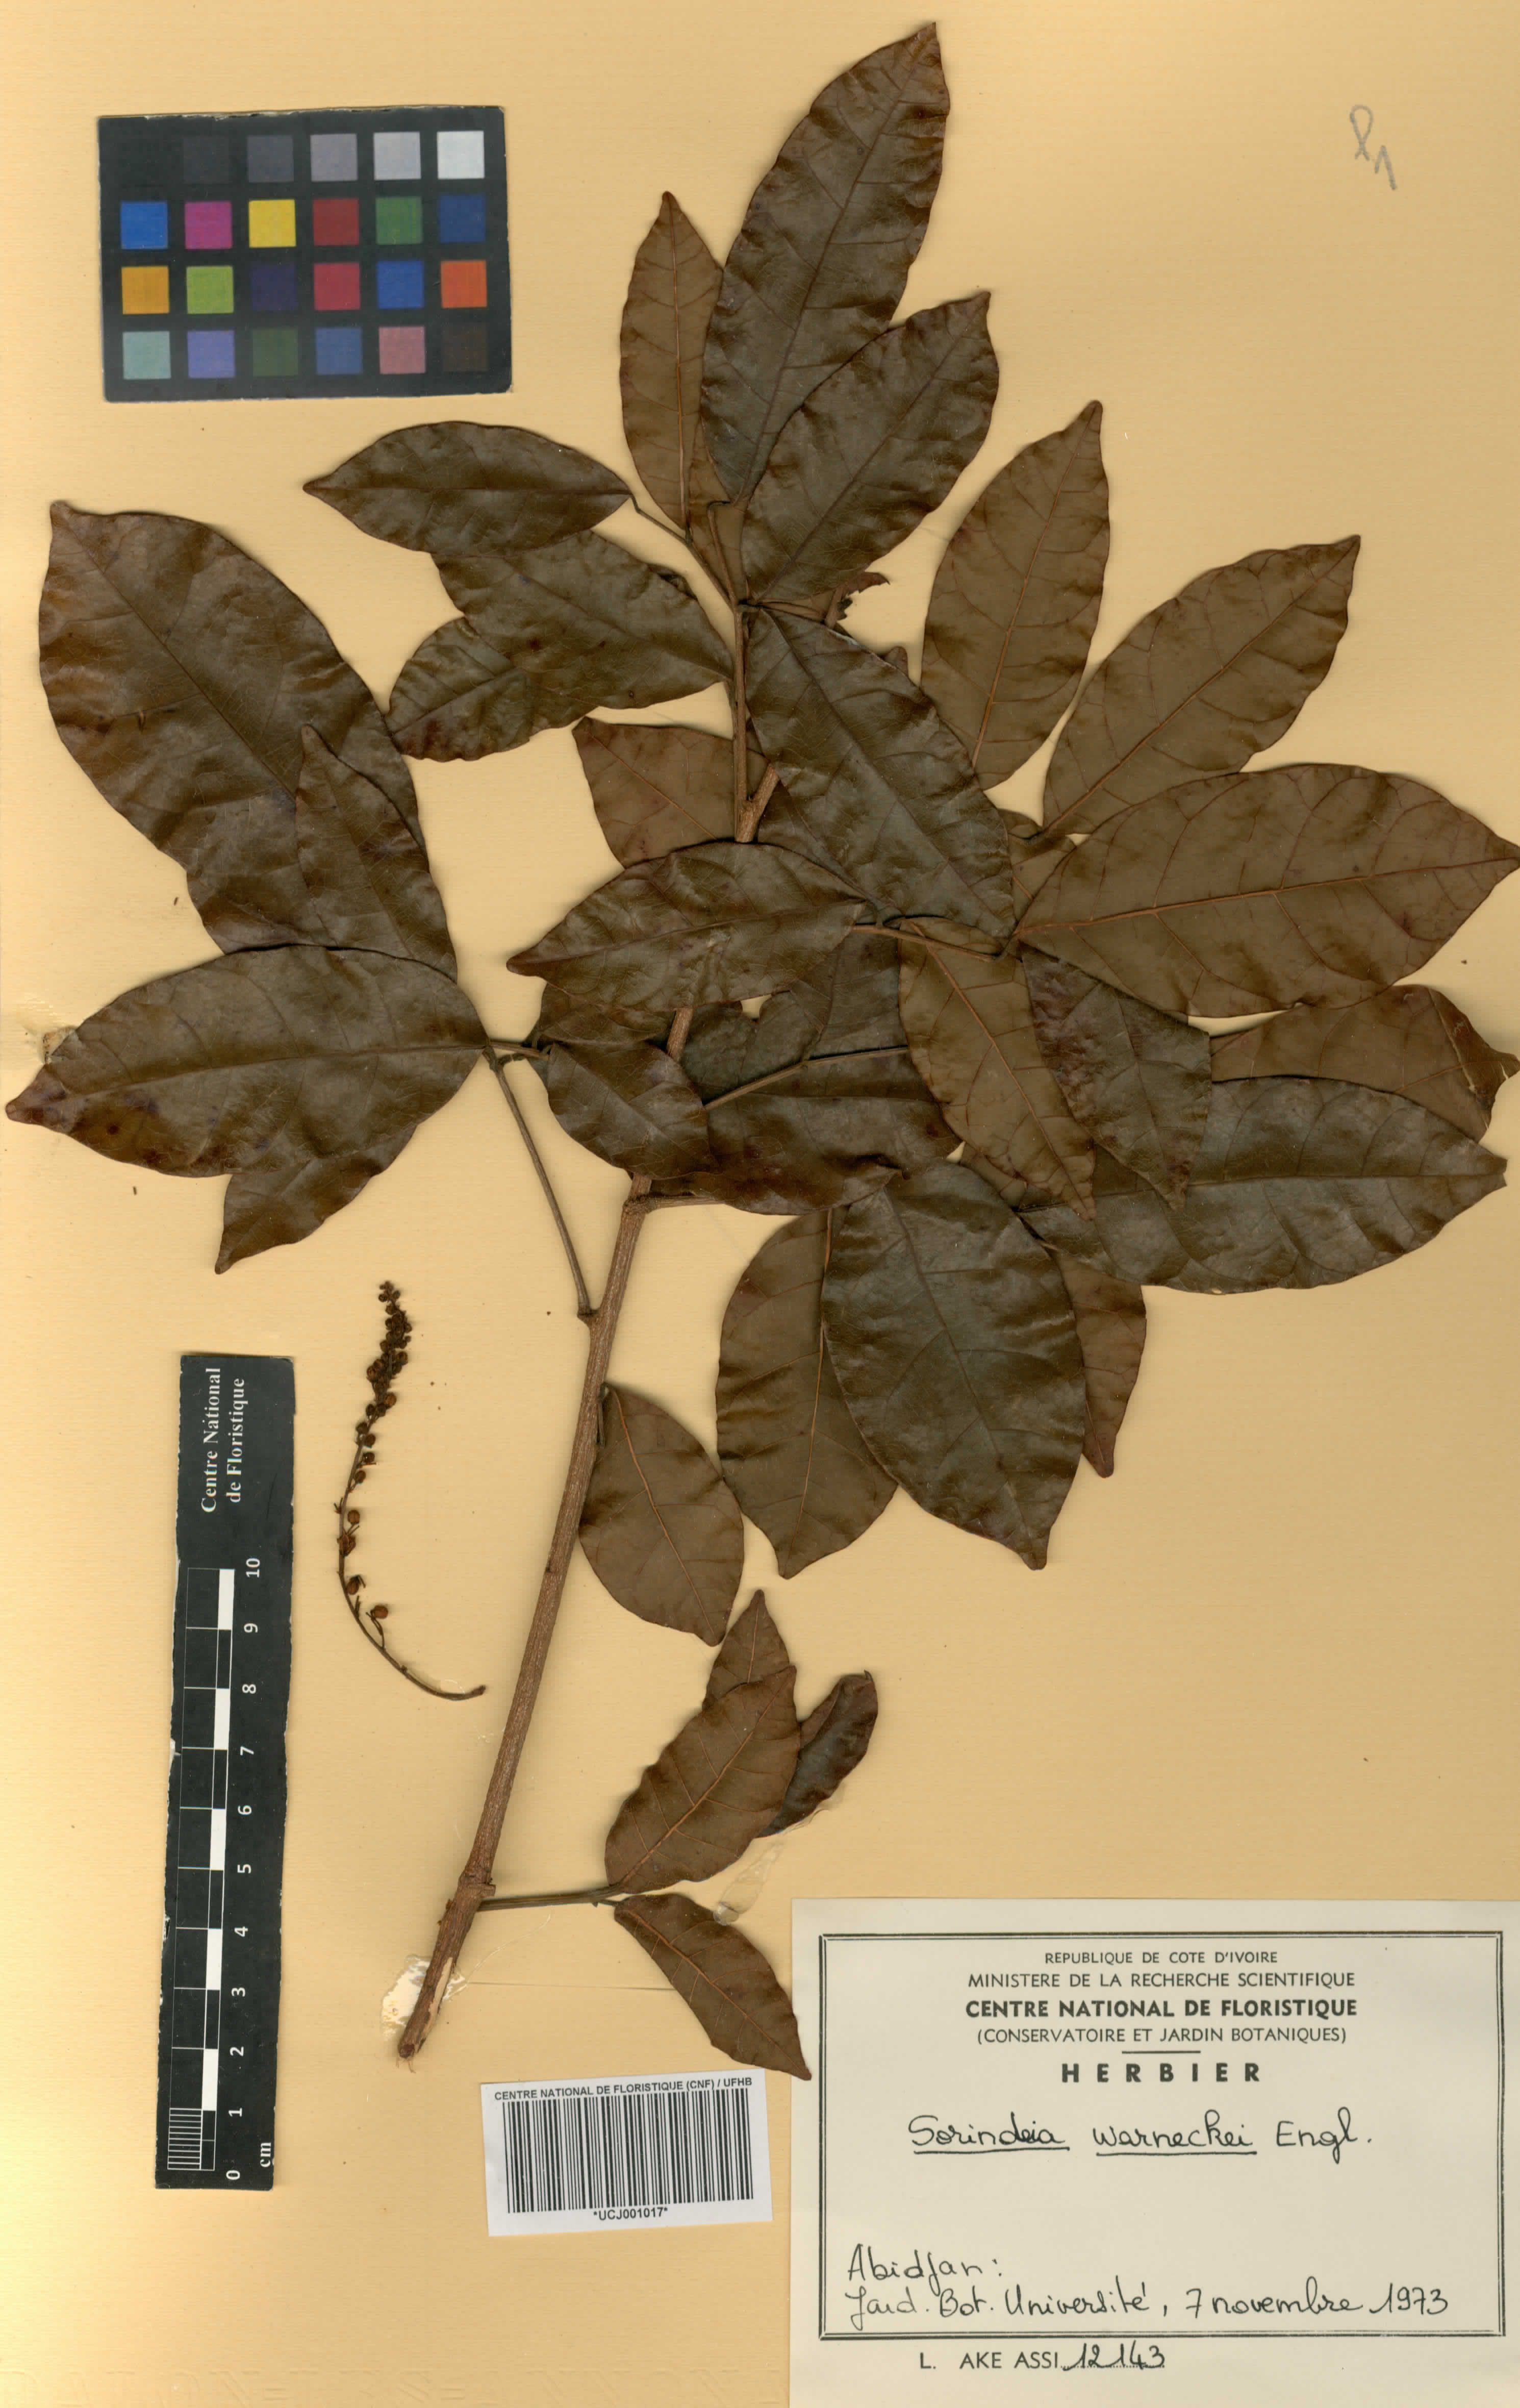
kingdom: Plantae
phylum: Tracheophyta
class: Magnoliopsida
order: Sapindales
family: Anacardiaceae
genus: Sorindeia
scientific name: Sorindeia grandifolia
